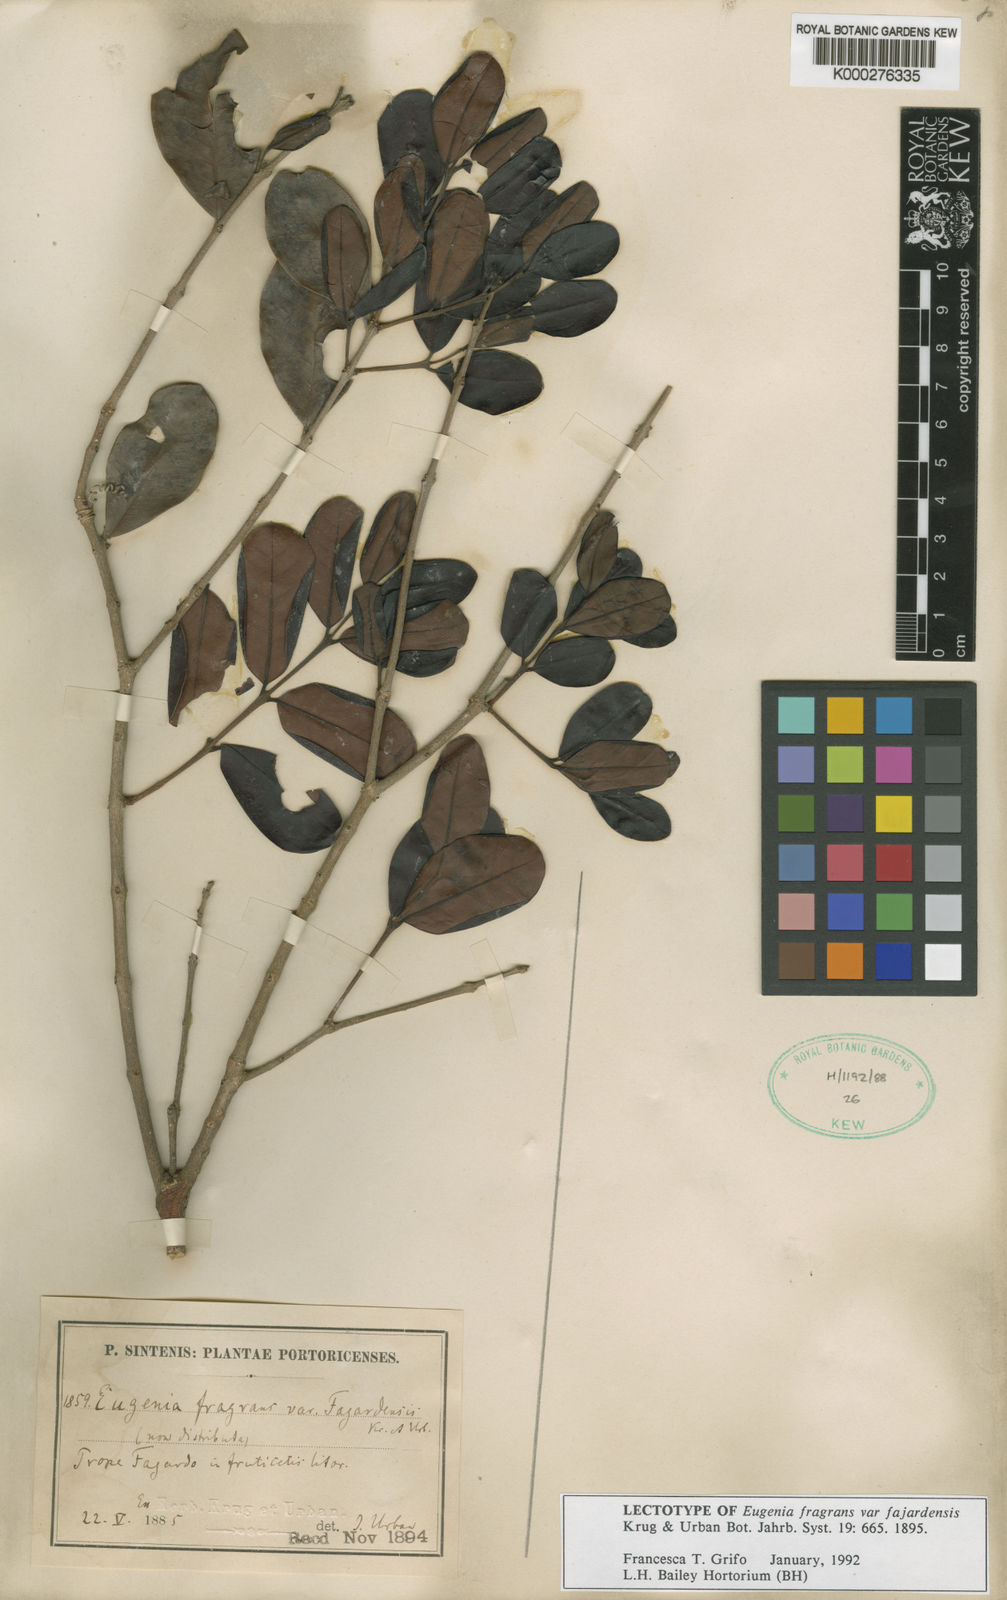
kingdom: Plantae
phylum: Tracheophyta
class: Magnoliopsida
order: Myrtales
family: Myrtaceae
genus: Myrcianthes
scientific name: Myrcianthes fragrans
